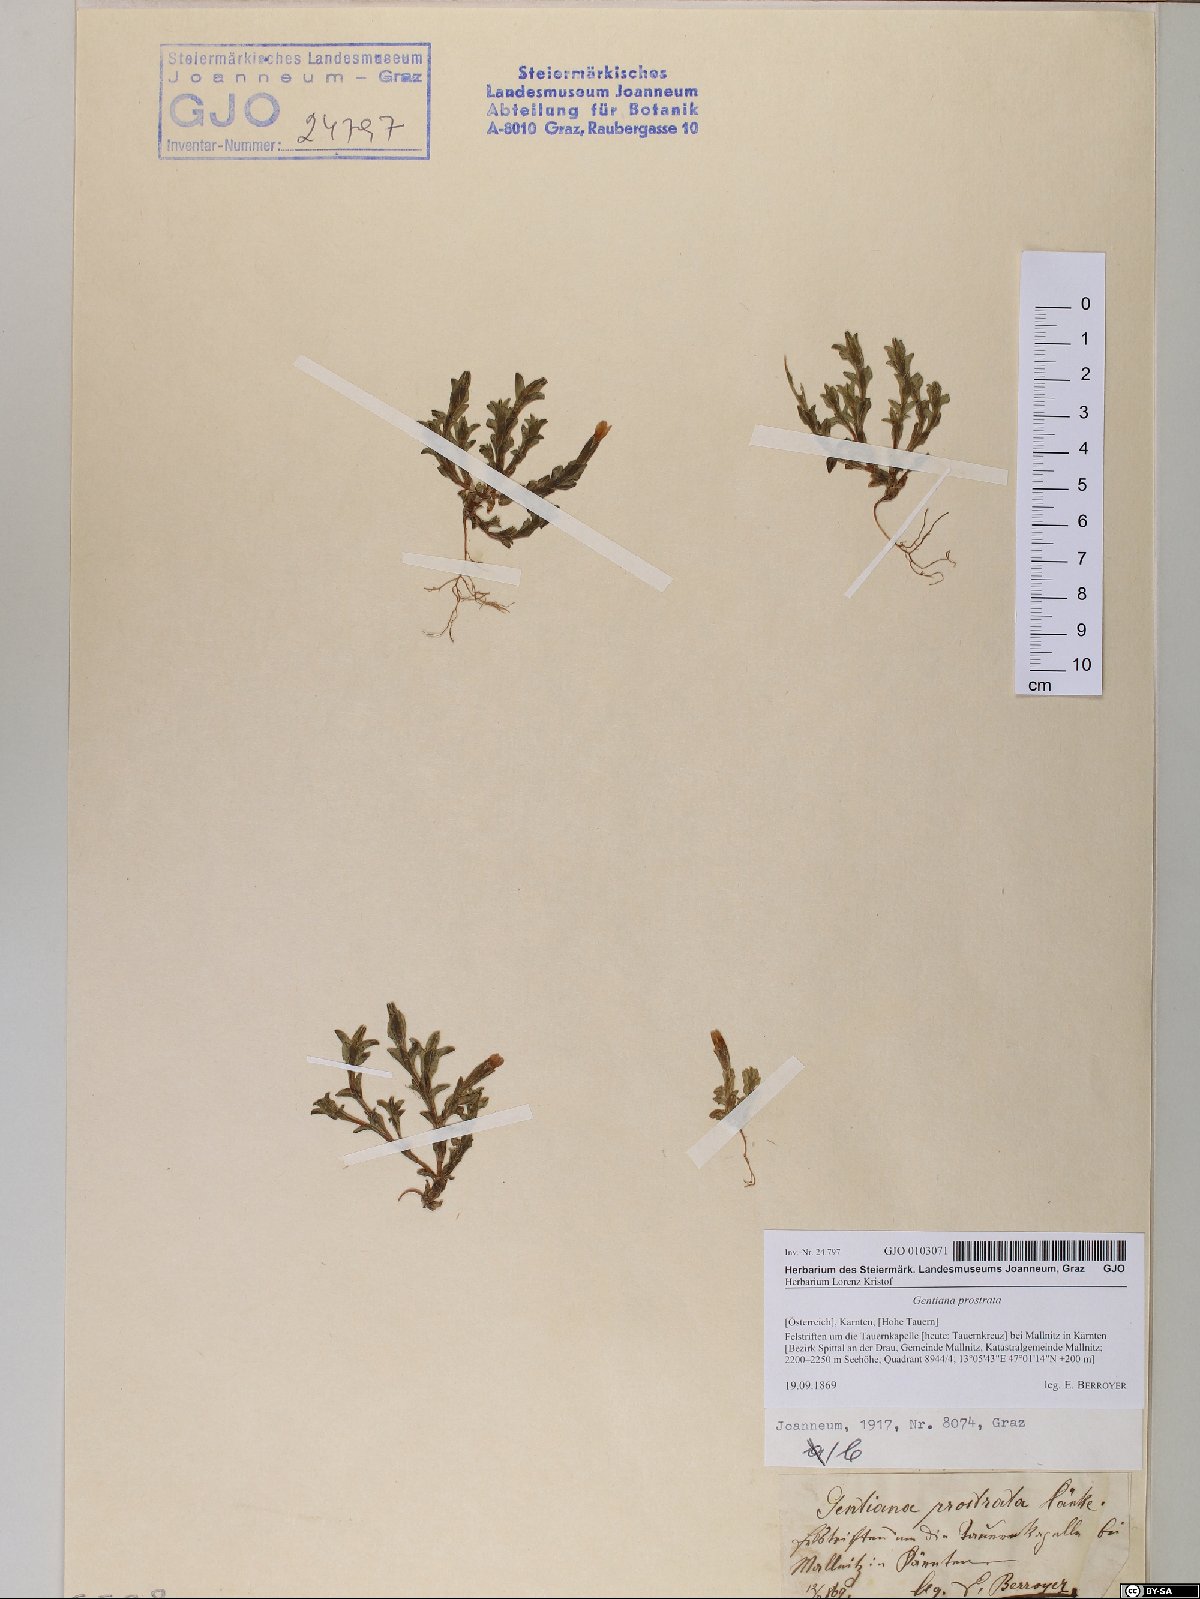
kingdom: Plantae
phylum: Tracheophyta
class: Magnoliopsida
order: Gentianales
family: Gentianaceae
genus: Gentiana
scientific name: Gentiana prostrata
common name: Moss gentian
